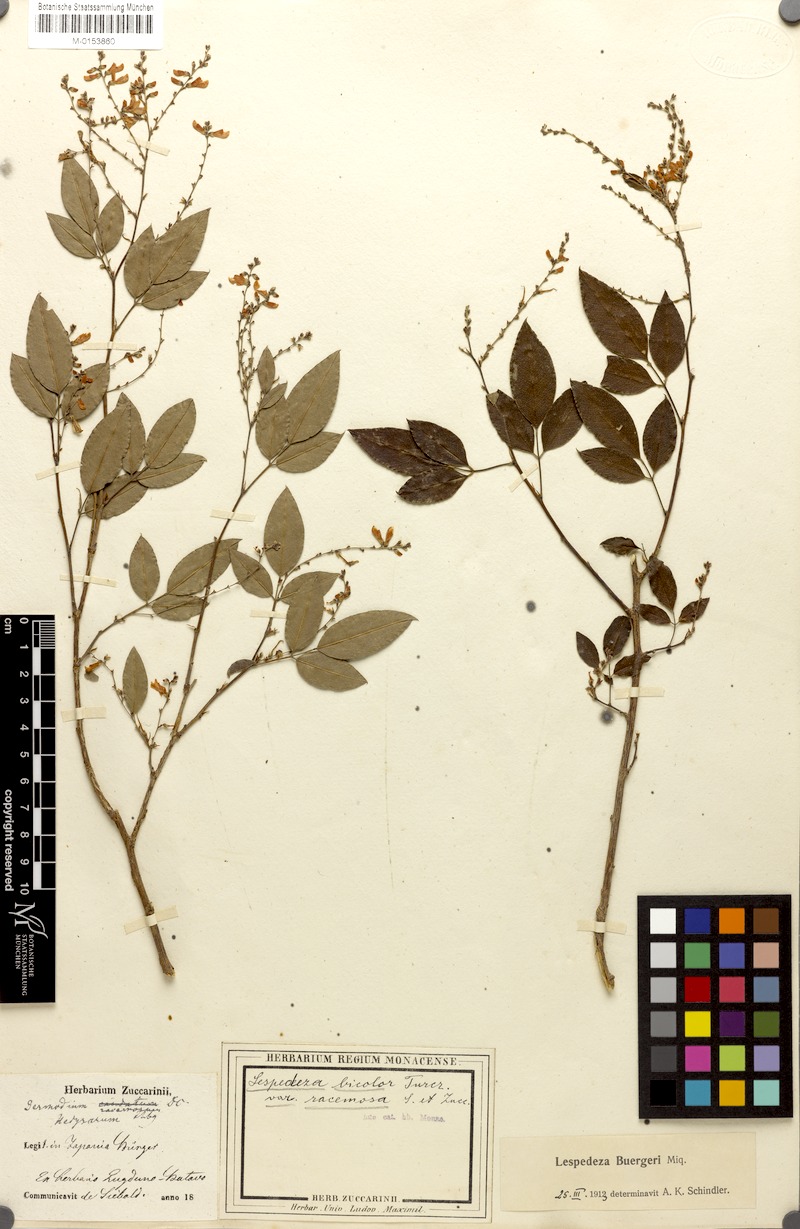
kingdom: Plantae
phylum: Tracheophyta
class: Magnoliopsida
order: Fabales
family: Fabaceae
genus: Lespedeza
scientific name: Lespedeza buergeri
